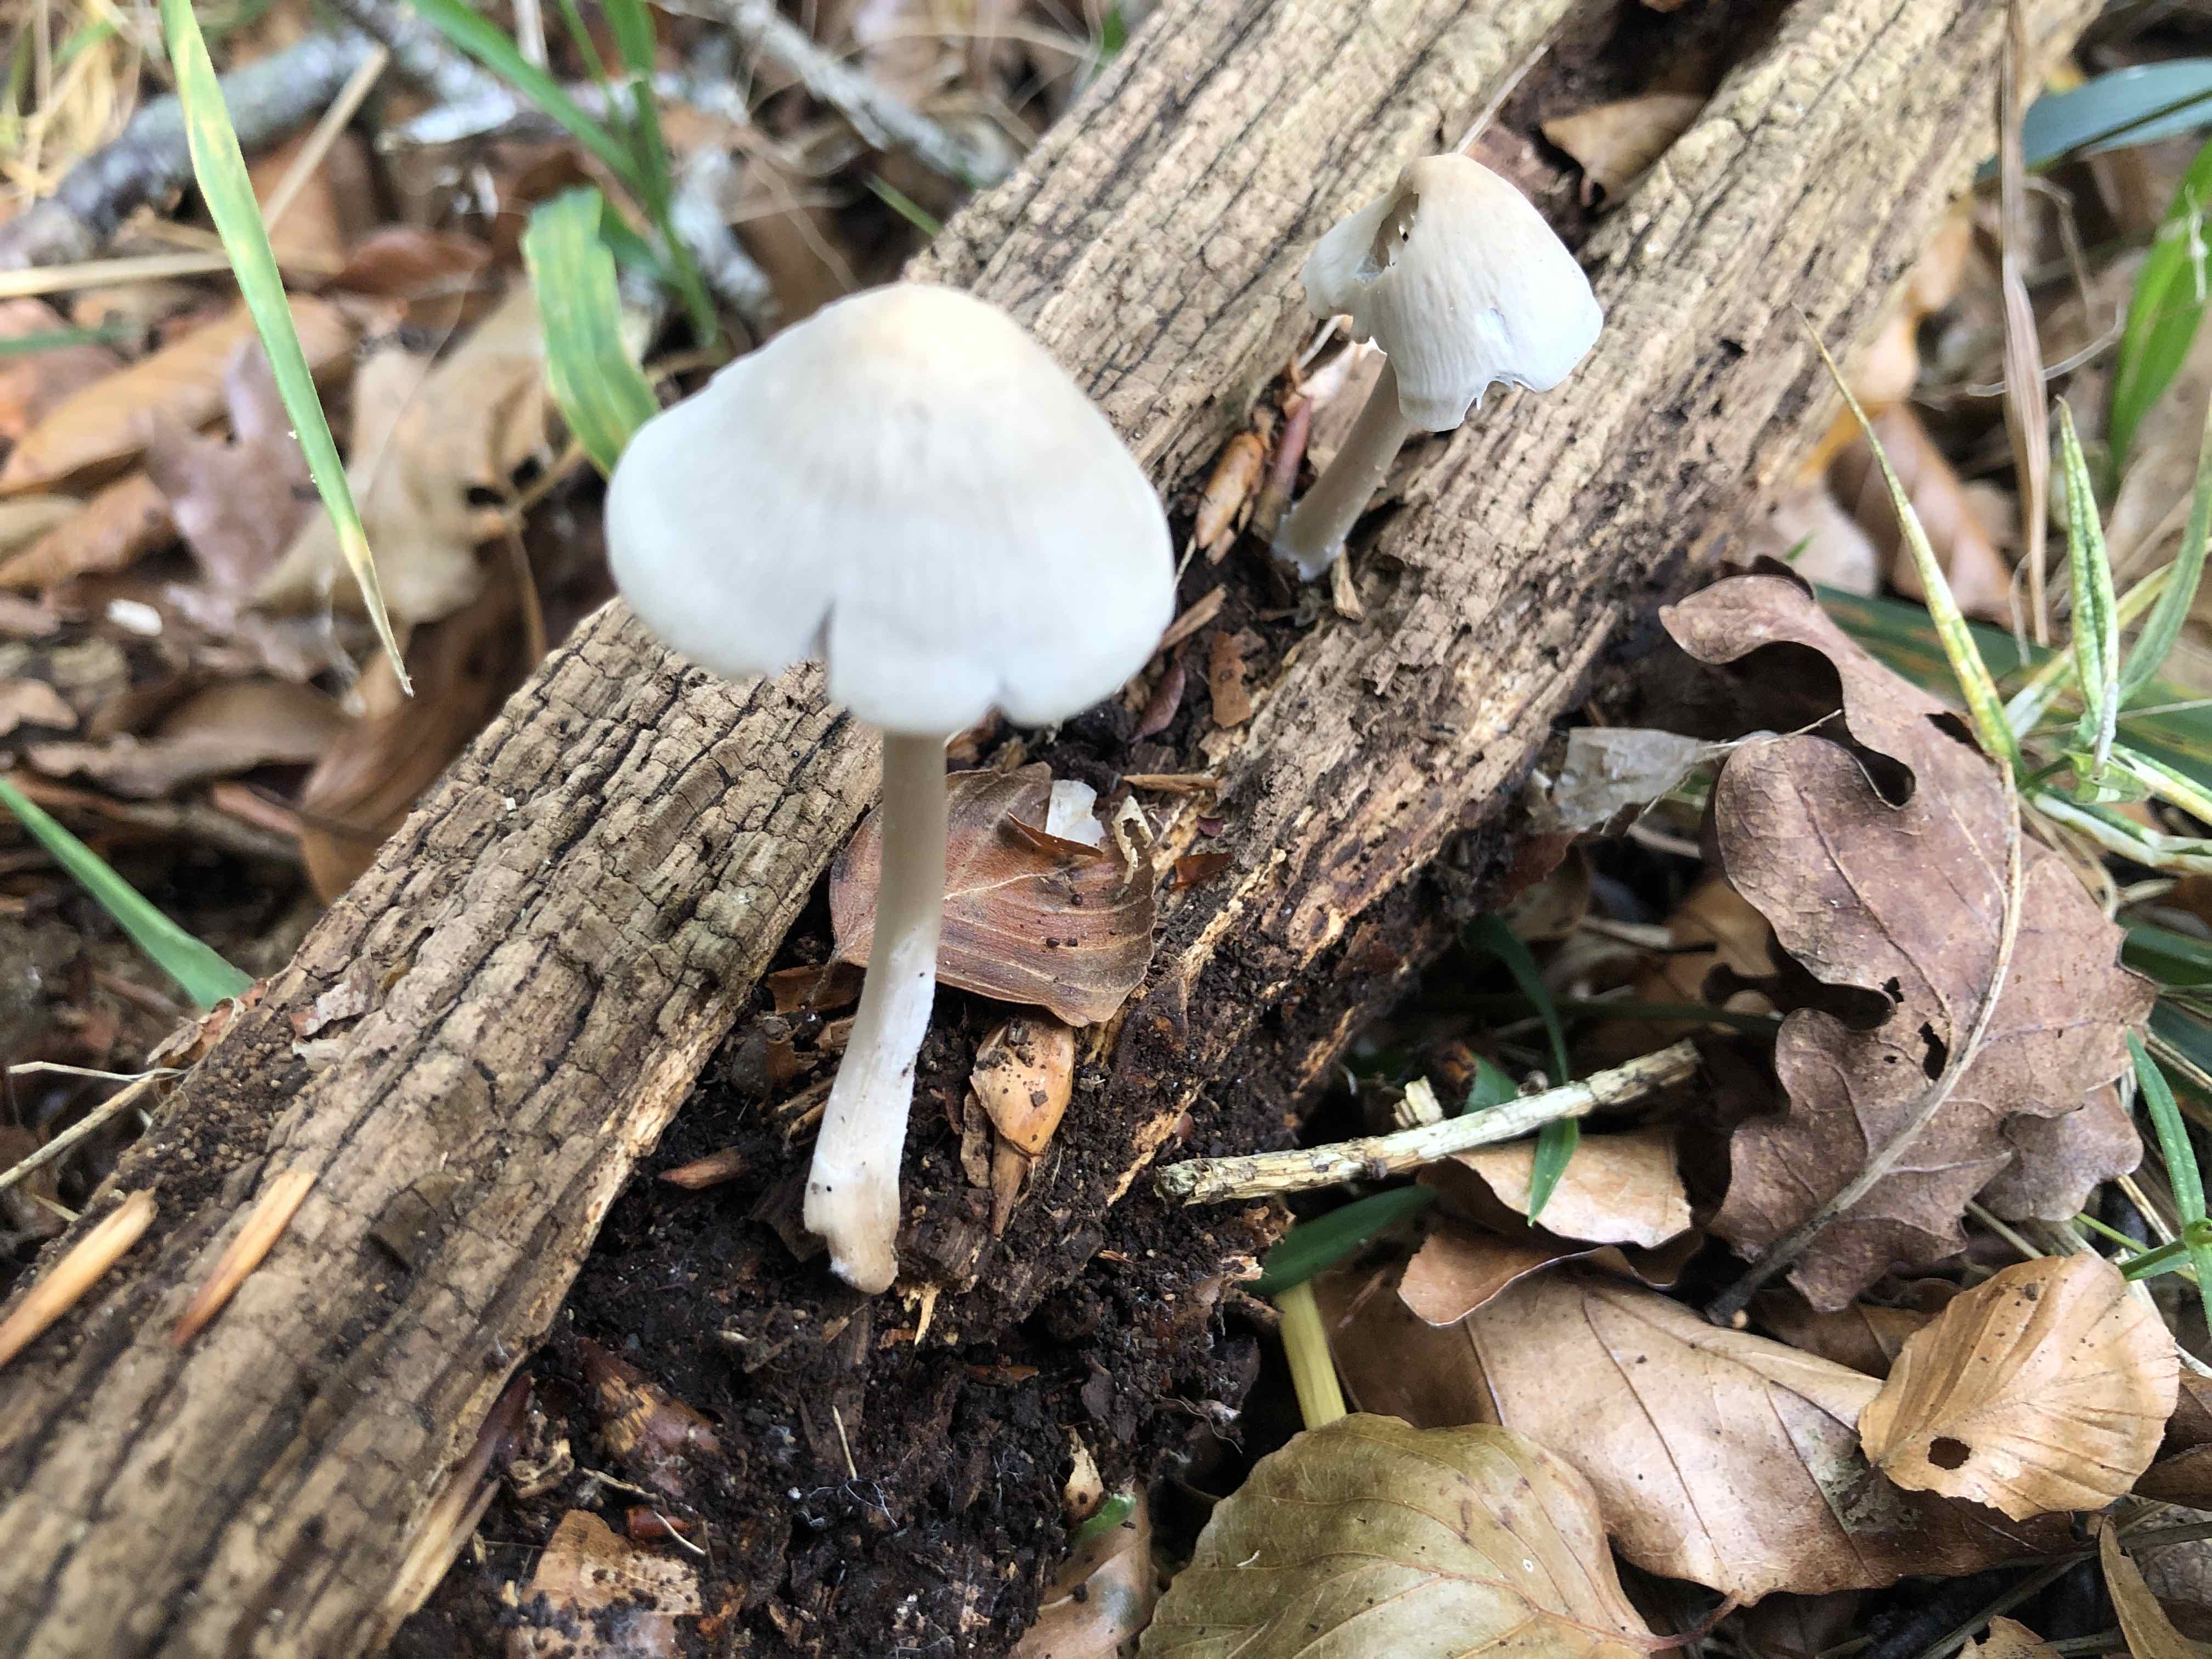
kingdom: Fungi
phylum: Basidiomycota
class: Agaricomycetes
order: Agaricales
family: Mycenaceae
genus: Mycena
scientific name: Mycena galericulata
